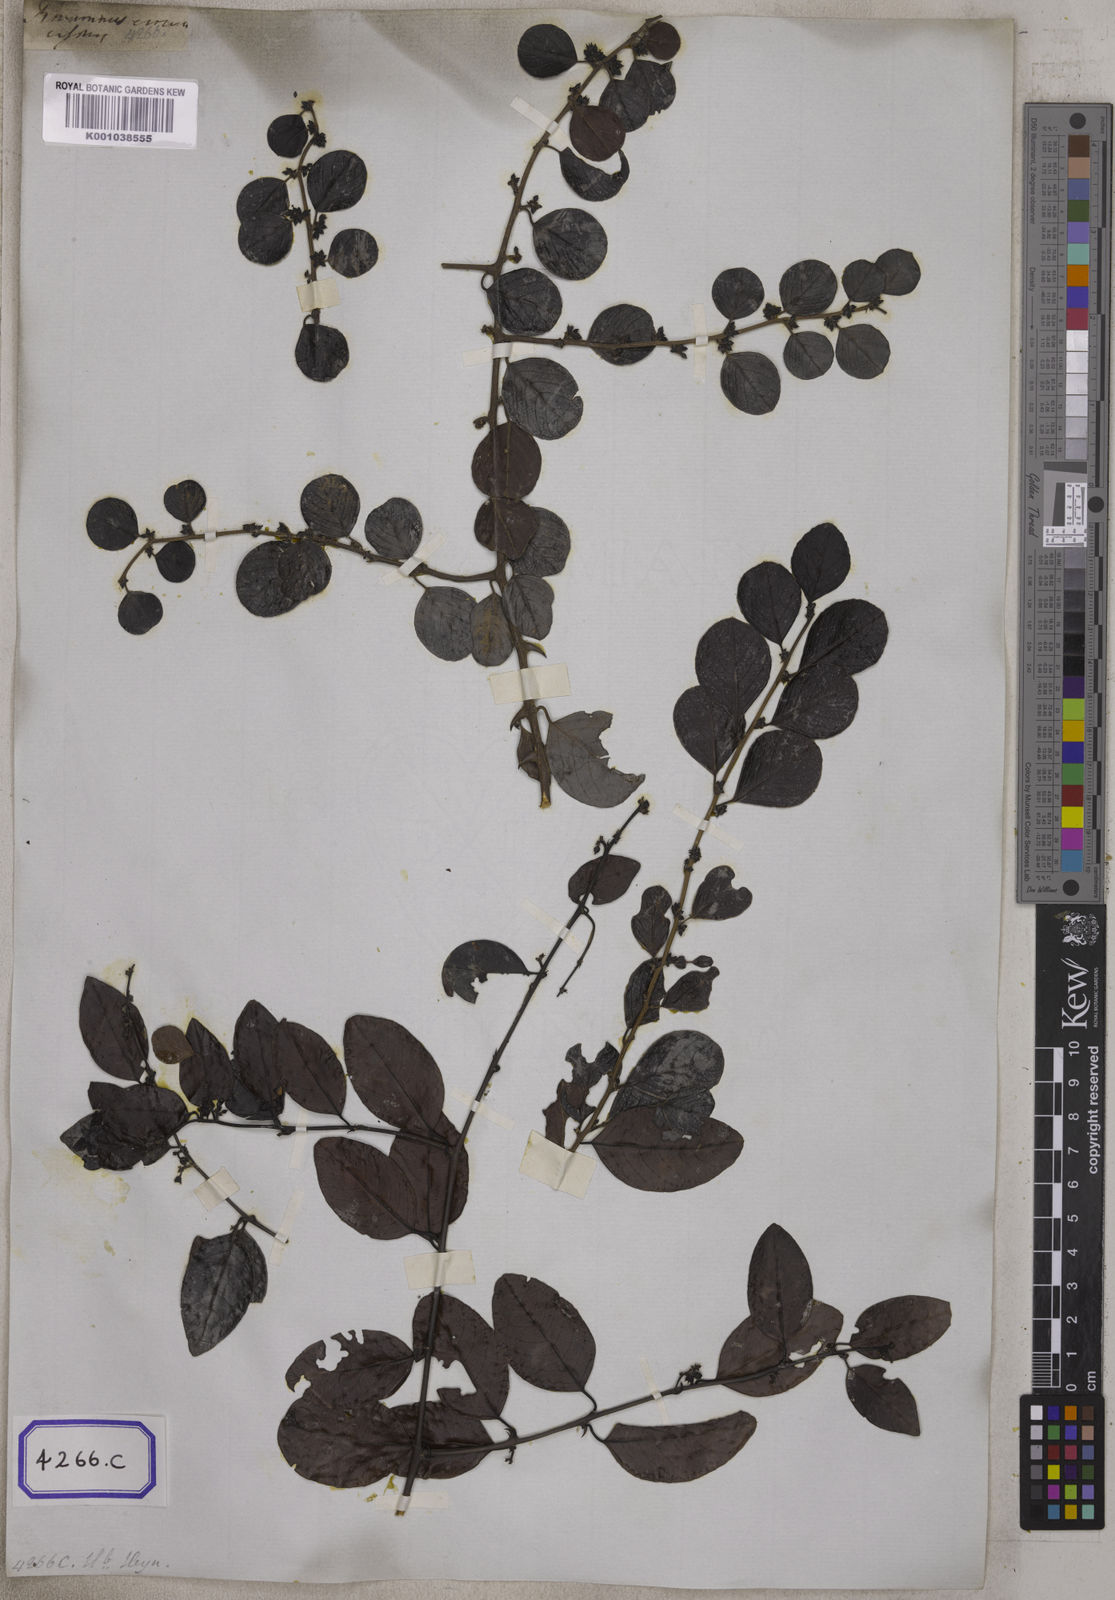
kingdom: Plantae
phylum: Tracheophyta
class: Magnoliopsida
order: Rosales
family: Rhamnaceae
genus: Scutia
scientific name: Scutia myrtina
